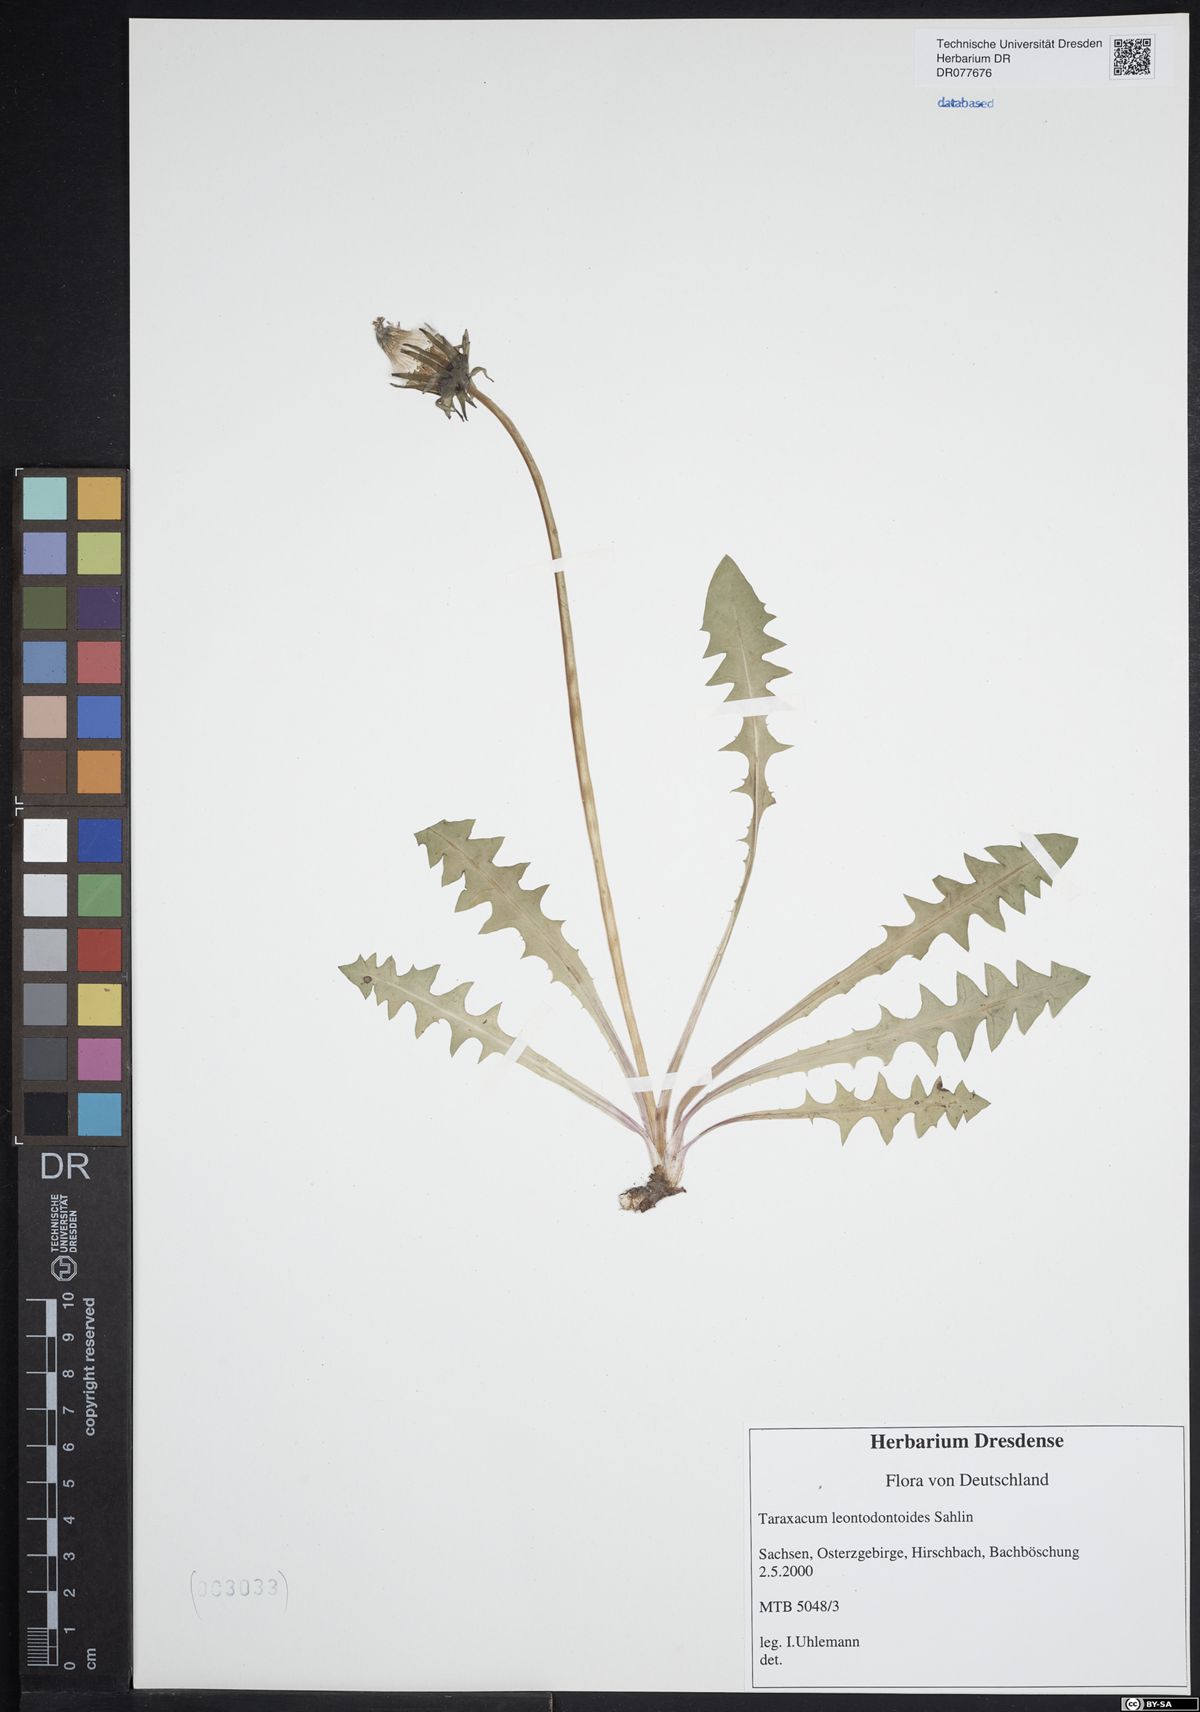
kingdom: Plantae
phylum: Tracheophyta
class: Magnoliopsida
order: Asterales
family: Asteraceae
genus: Taraxacum
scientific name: Taraxacum gentile
